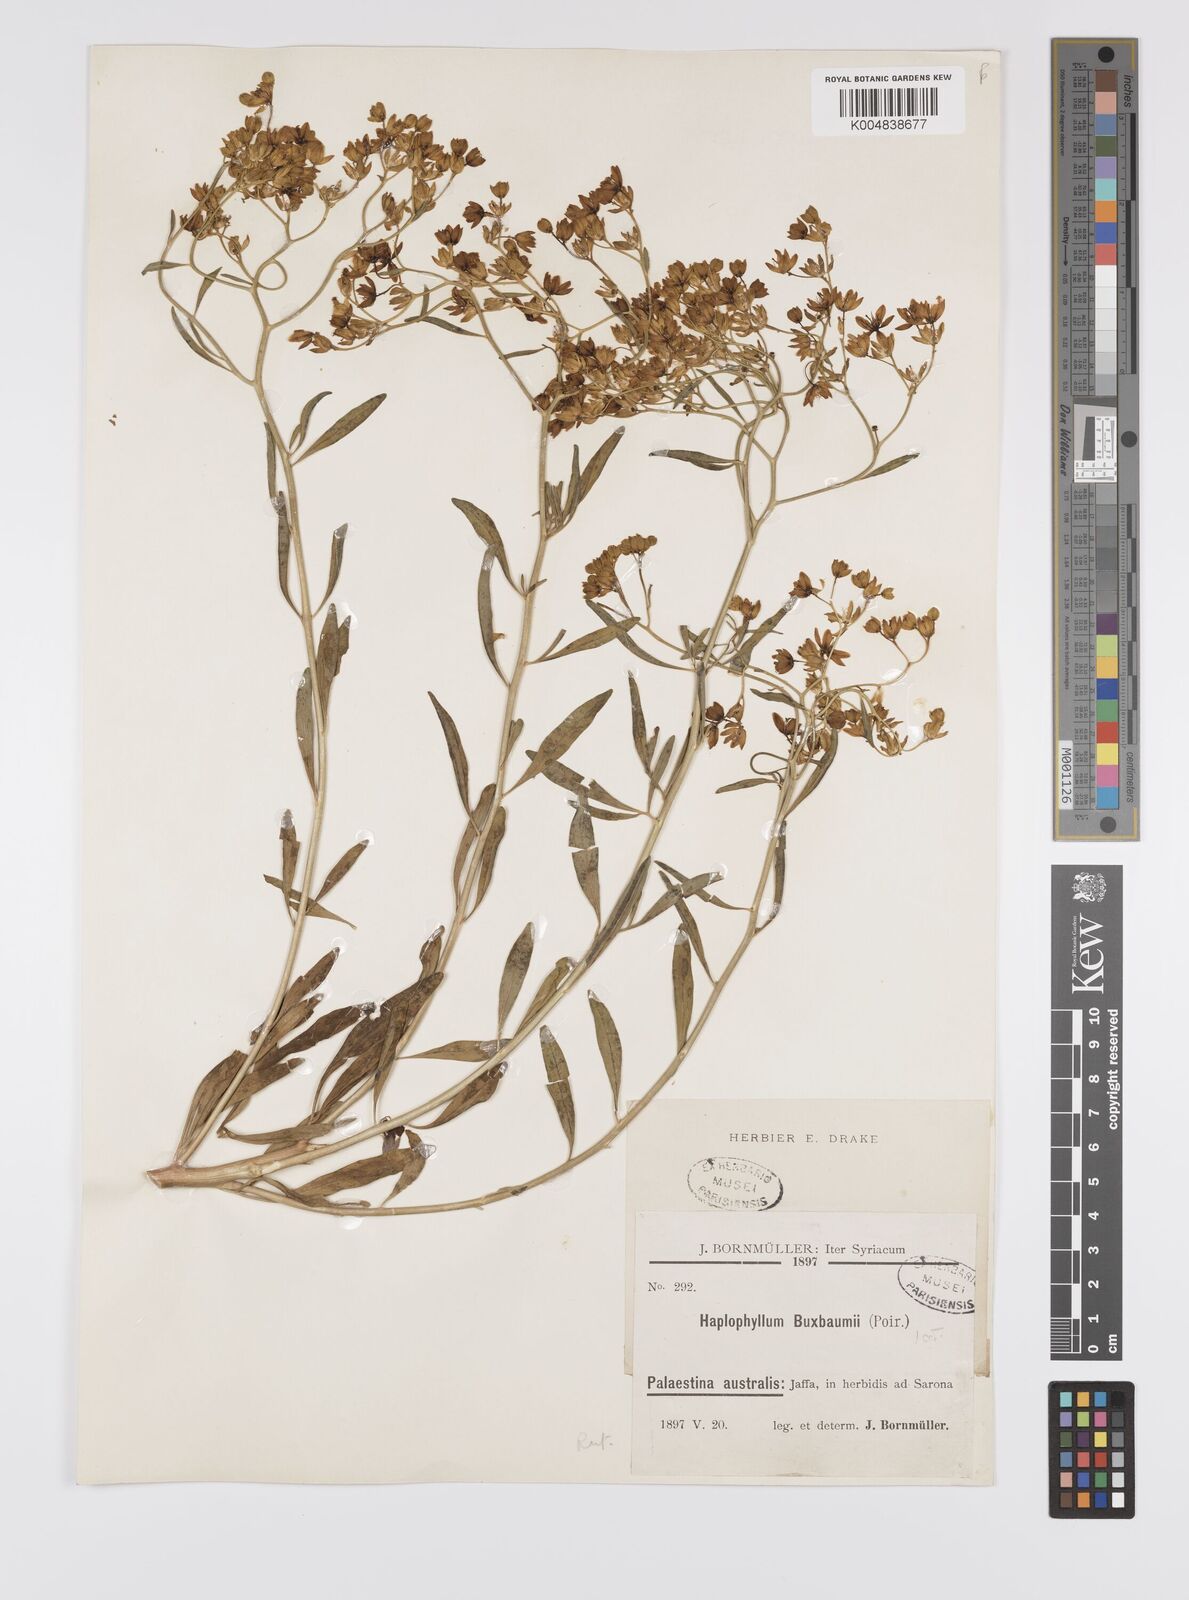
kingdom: Plantae
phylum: Tracheophyta
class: Magnoliopsida
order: Sapindales
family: Rutaceae
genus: Haplophyllum
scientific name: Haplophyllum
